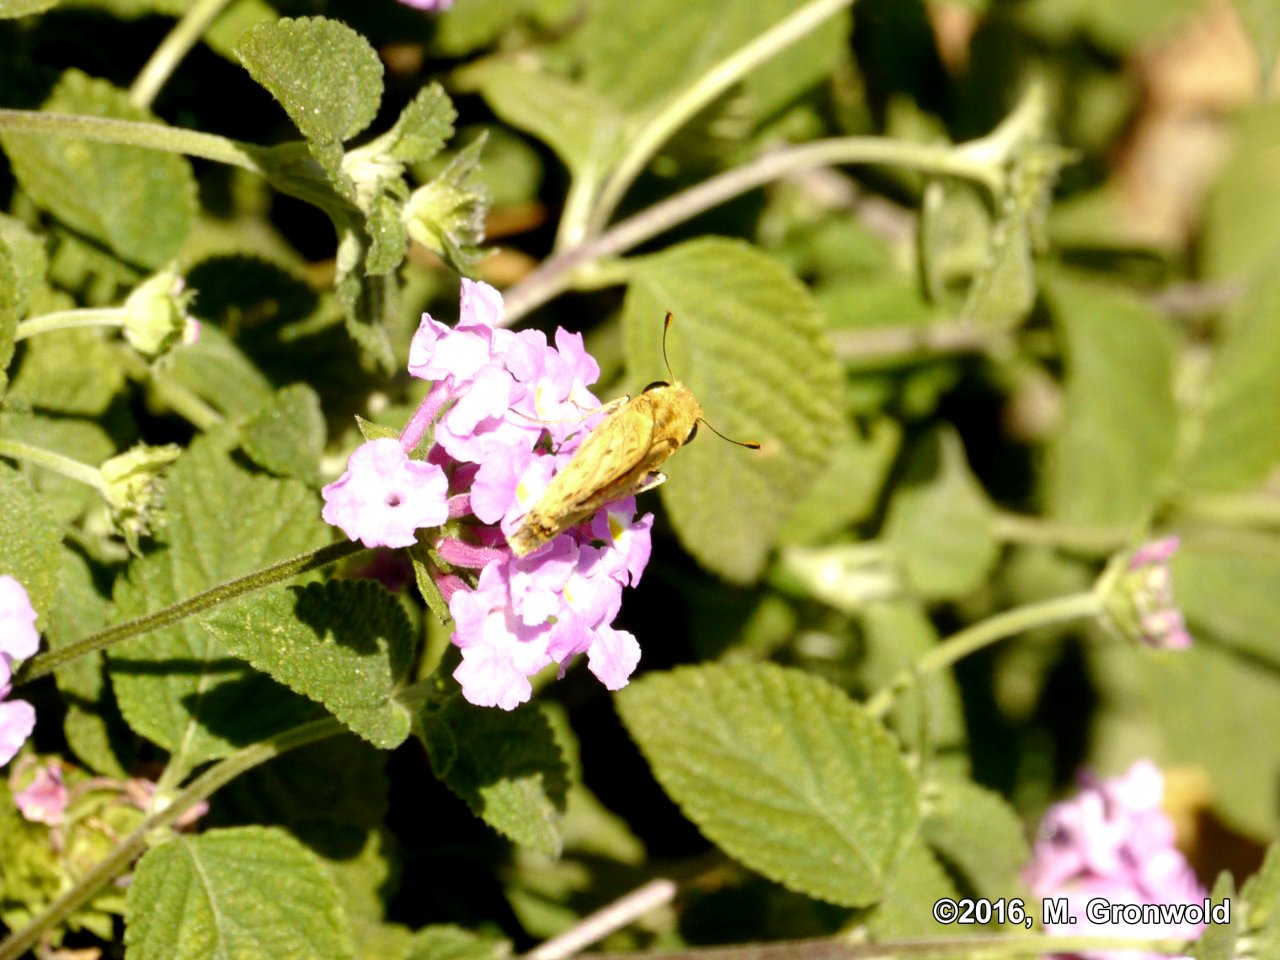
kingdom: Animalia
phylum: Arthropoda
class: Insecta
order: Lepidoptera
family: Hesperiidae
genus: Hylephila
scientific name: Hylephila phyleus
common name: Fiery Skipper
